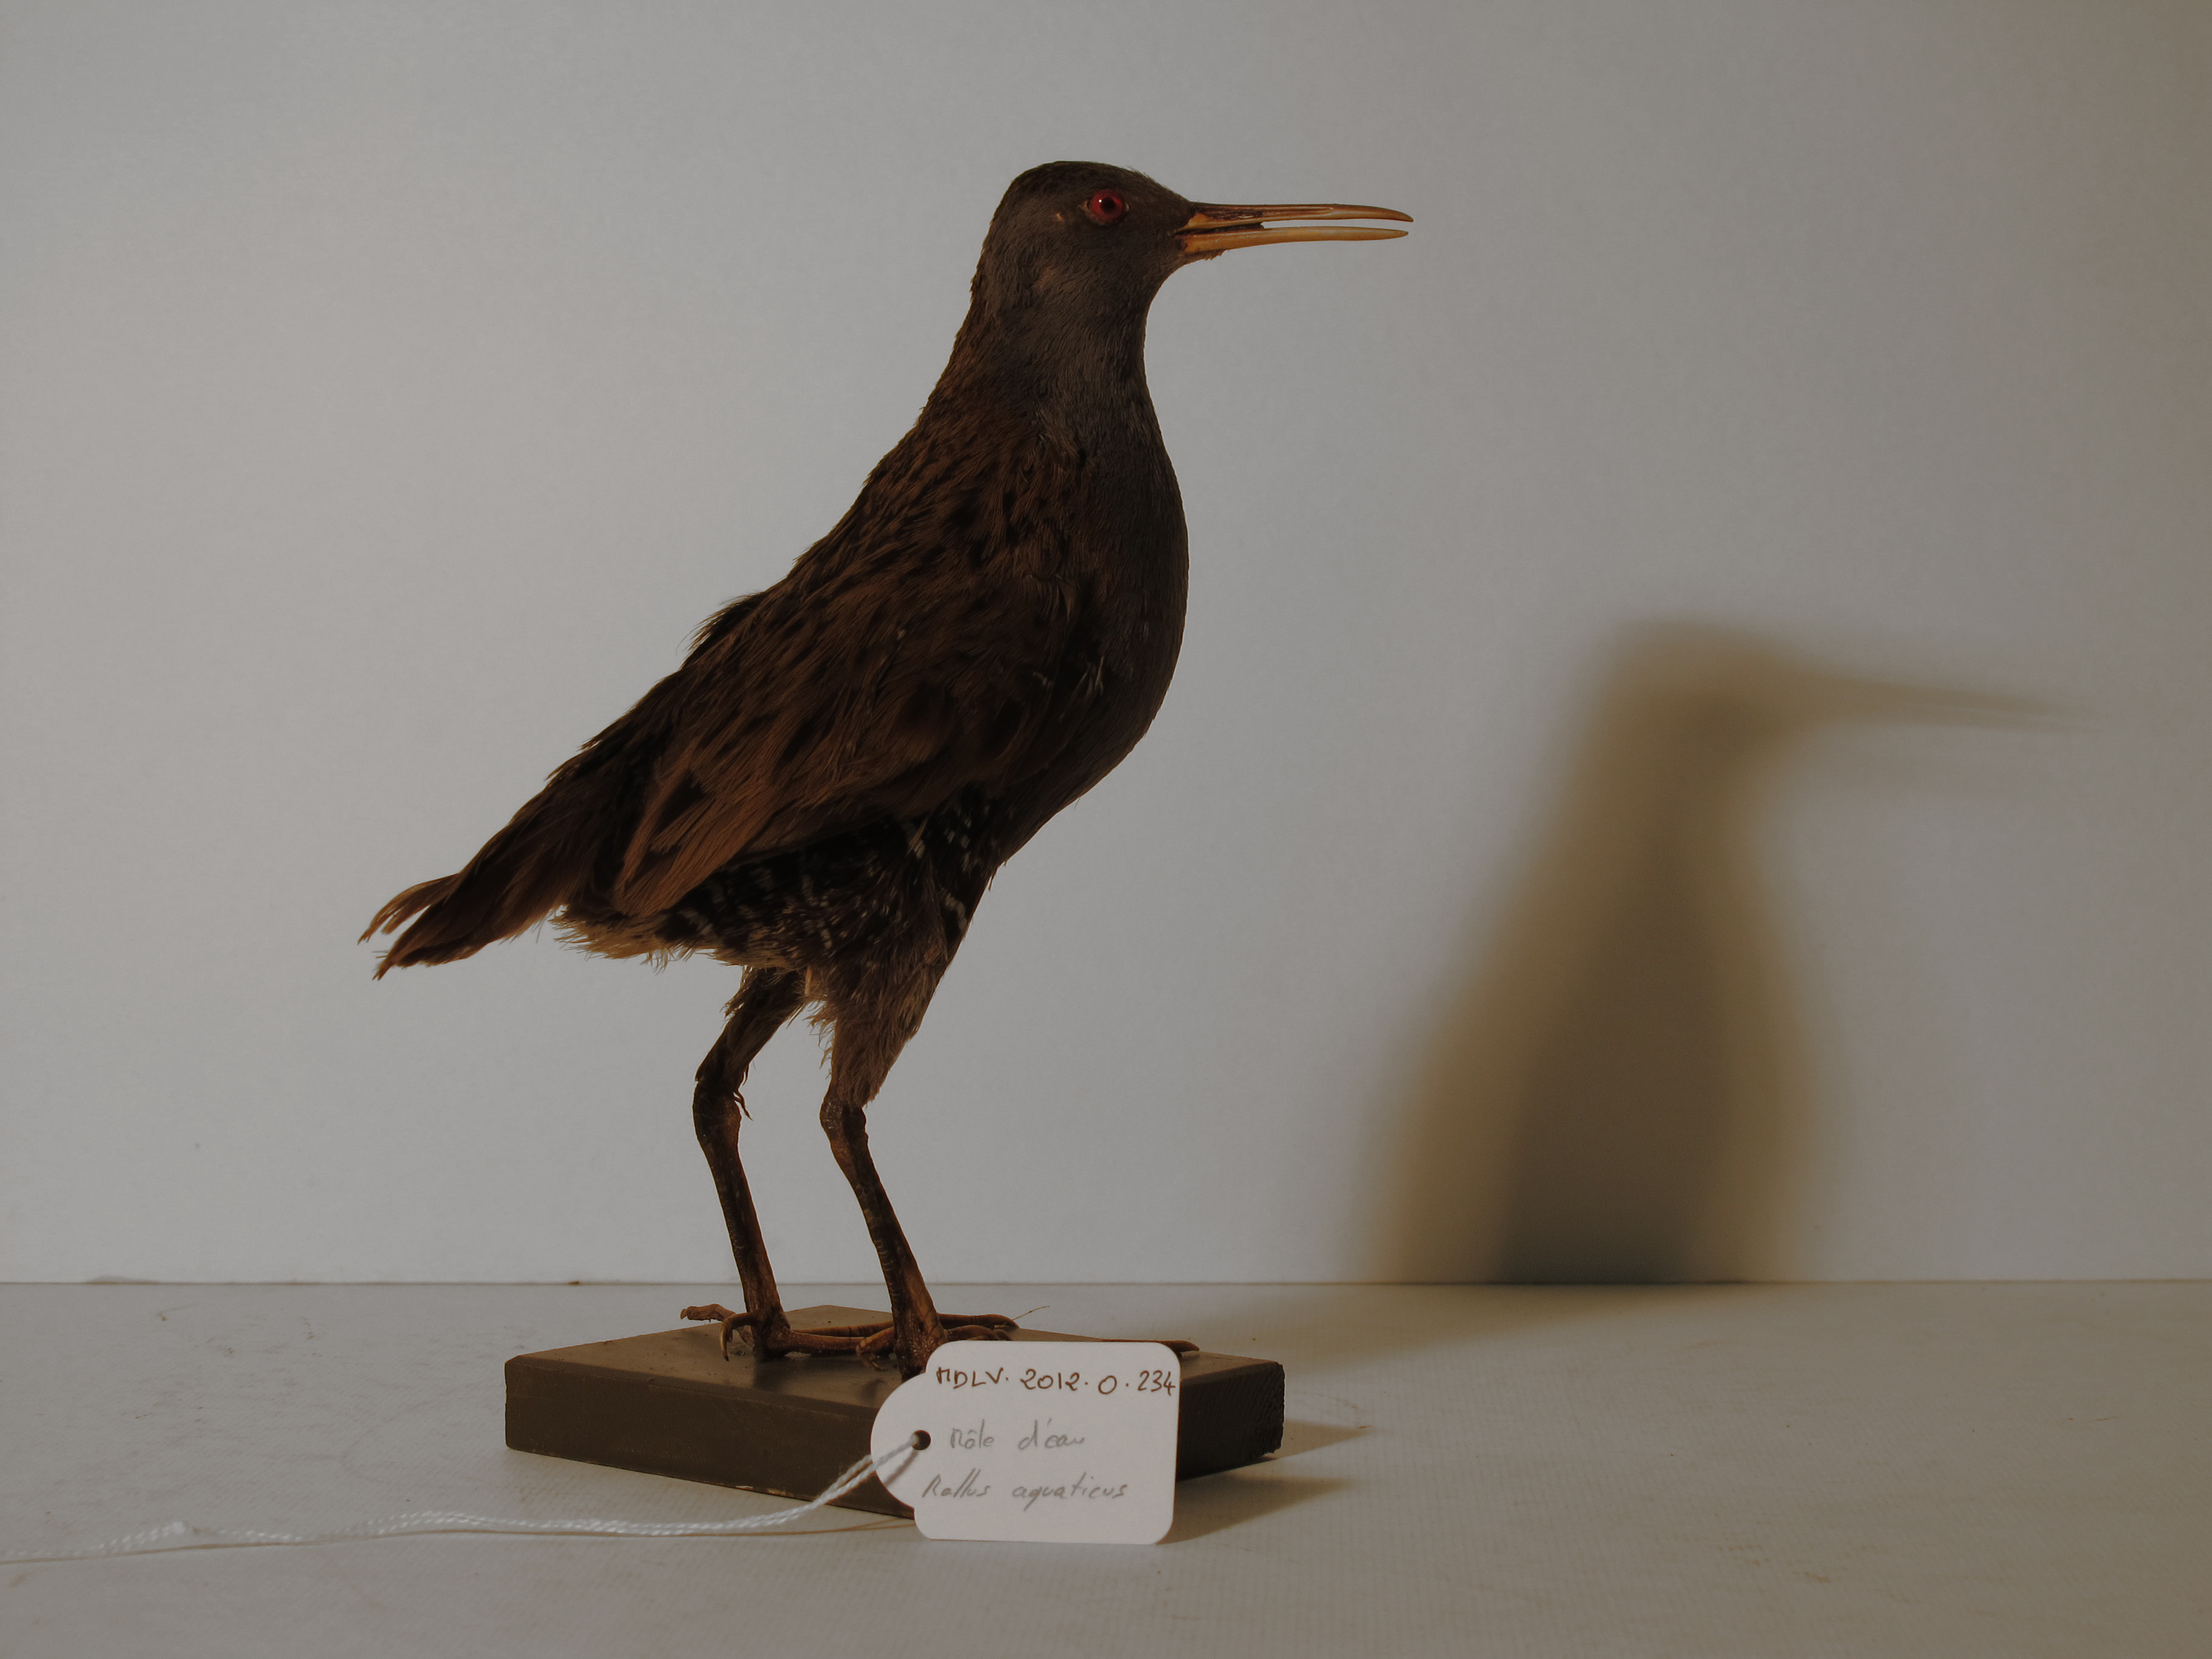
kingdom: Animalia
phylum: Chordata
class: Aves
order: Gruiformes
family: Rallidae
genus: Rallus
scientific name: Rallus aquaticus
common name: Water Rail
